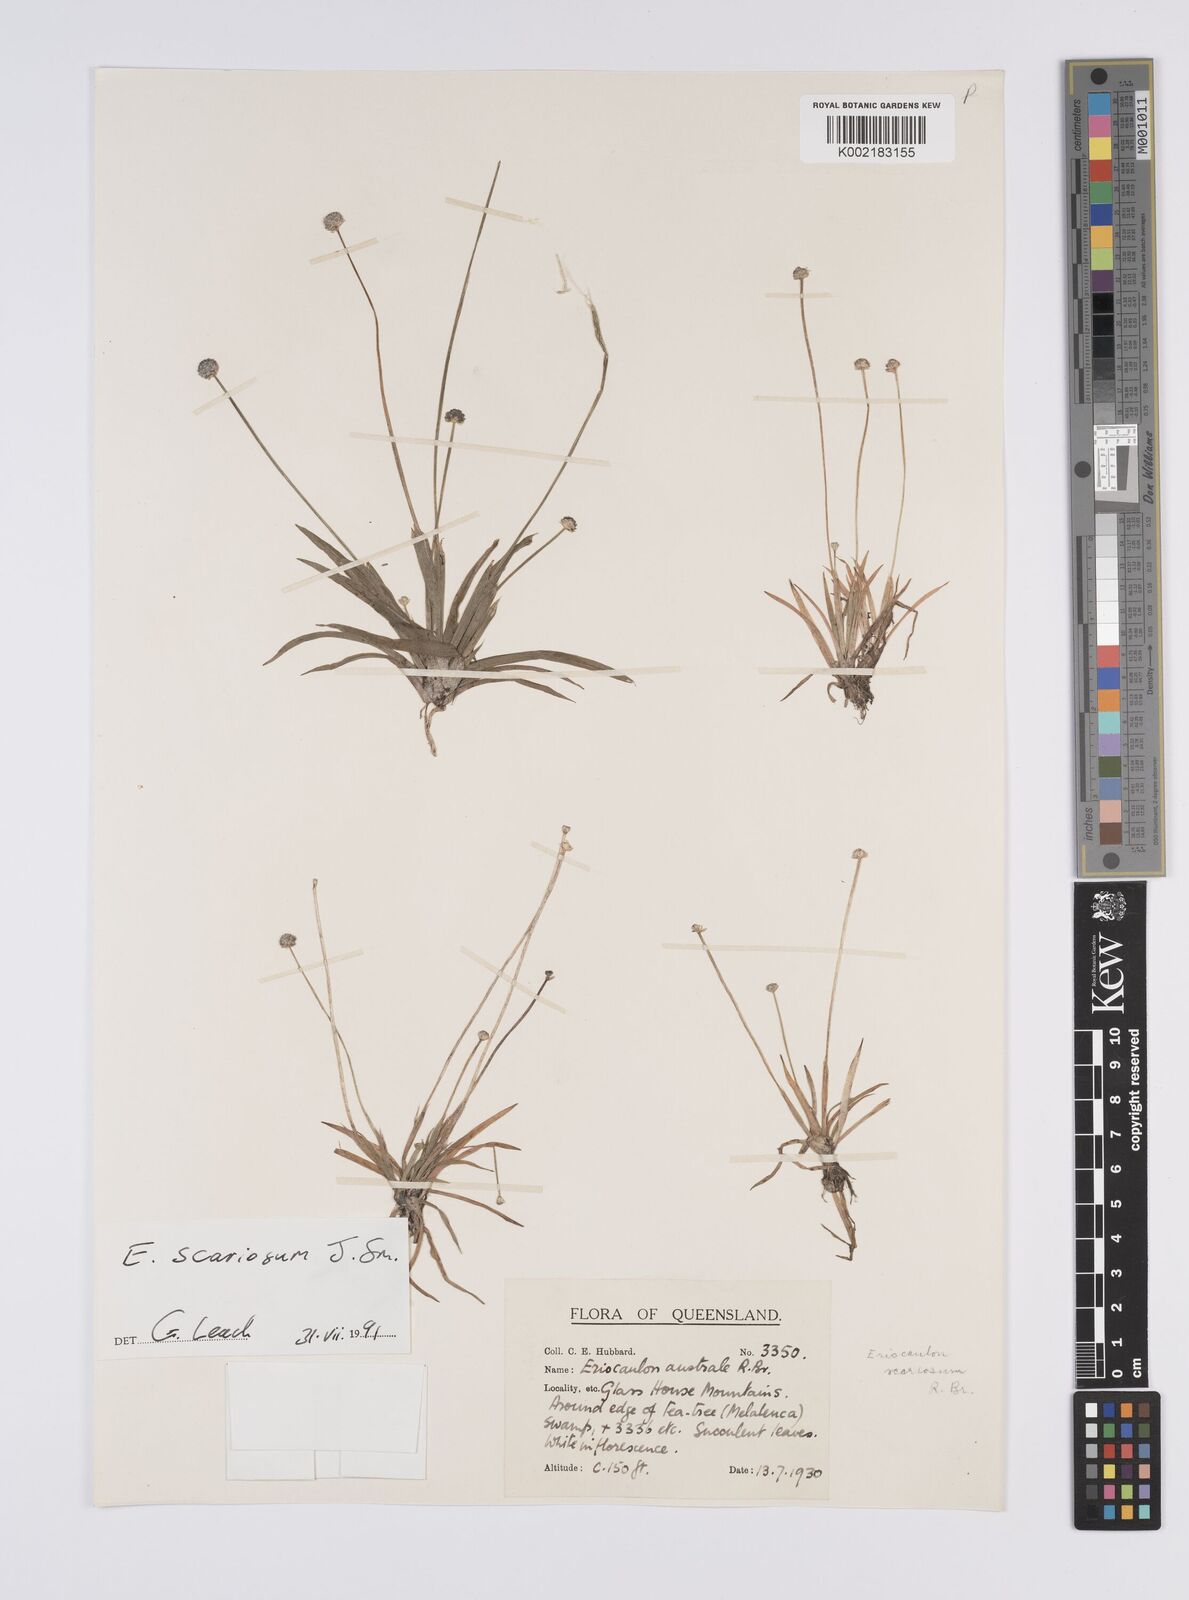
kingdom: Plantae
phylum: Tracheophyta
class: Liliopsida
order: Poales
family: Eriocaulaceae
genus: Eriocaulon
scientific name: Eriocaulon scariosum
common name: Rough pipewort
